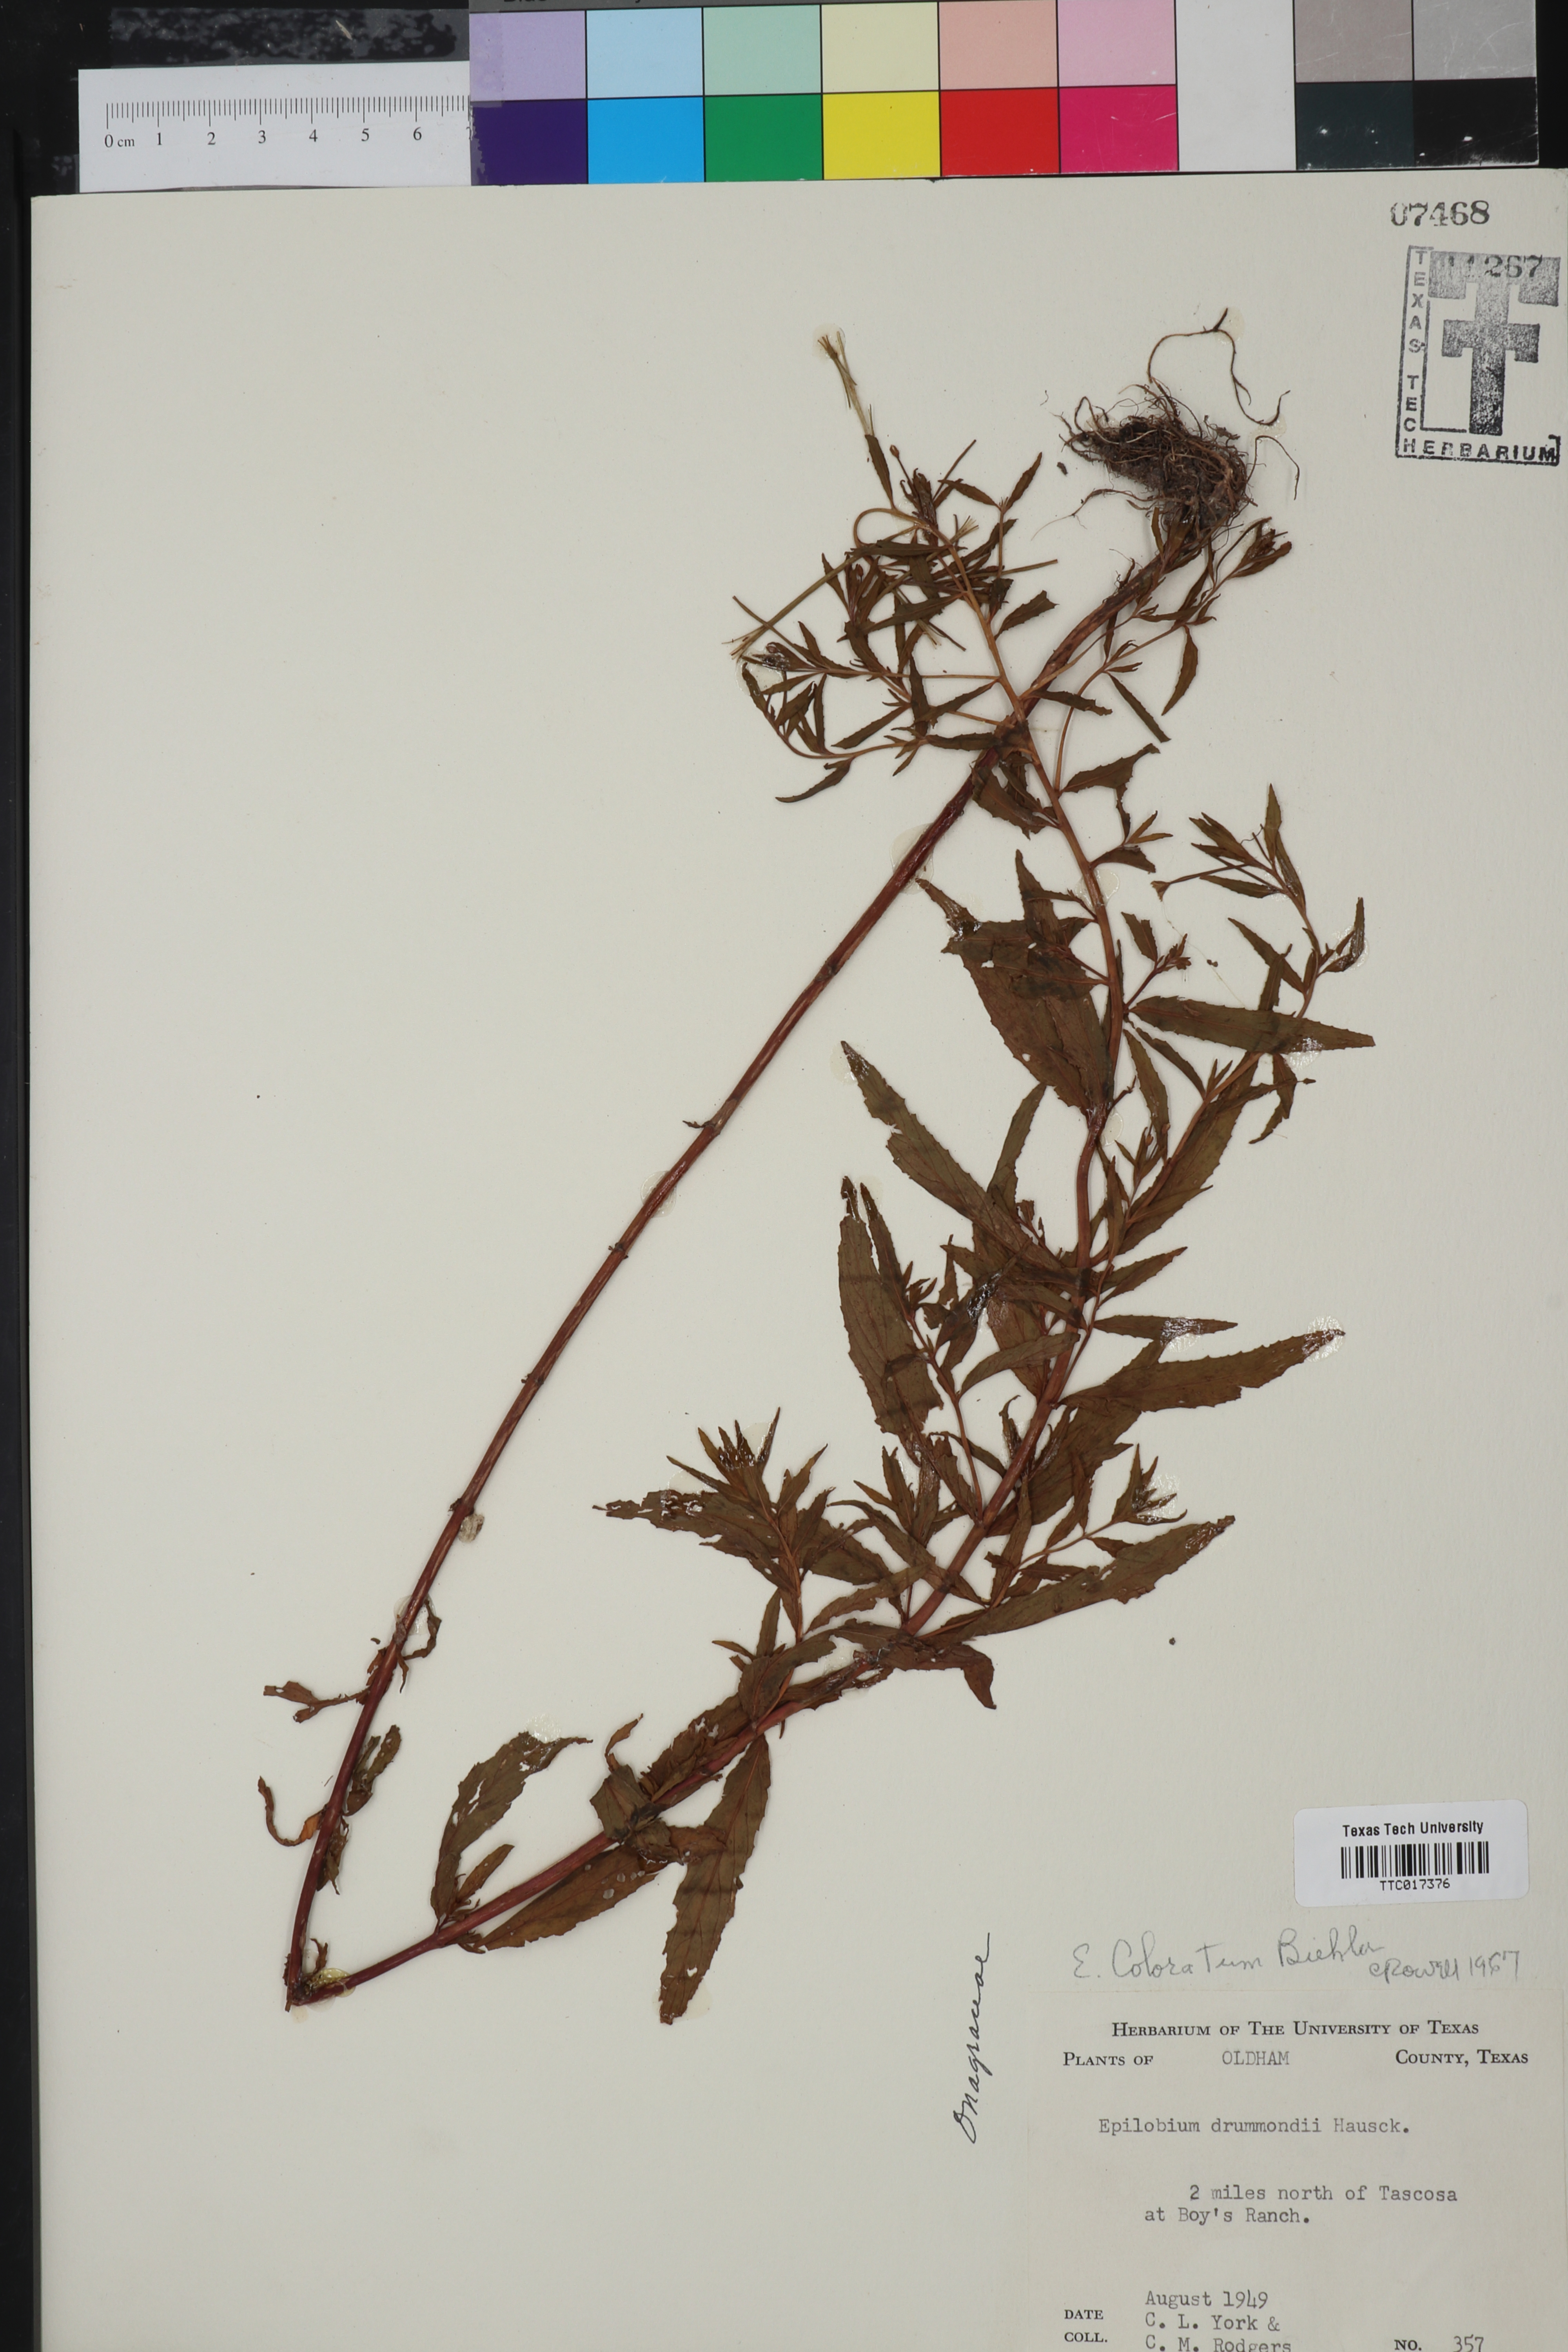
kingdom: Plantae
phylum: Tracheophyta
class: Magnoliopsida
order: Myrtales
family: Onagraceae
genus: Epilobium
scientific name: Epilobium coloratum
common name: Bronze willowherb
